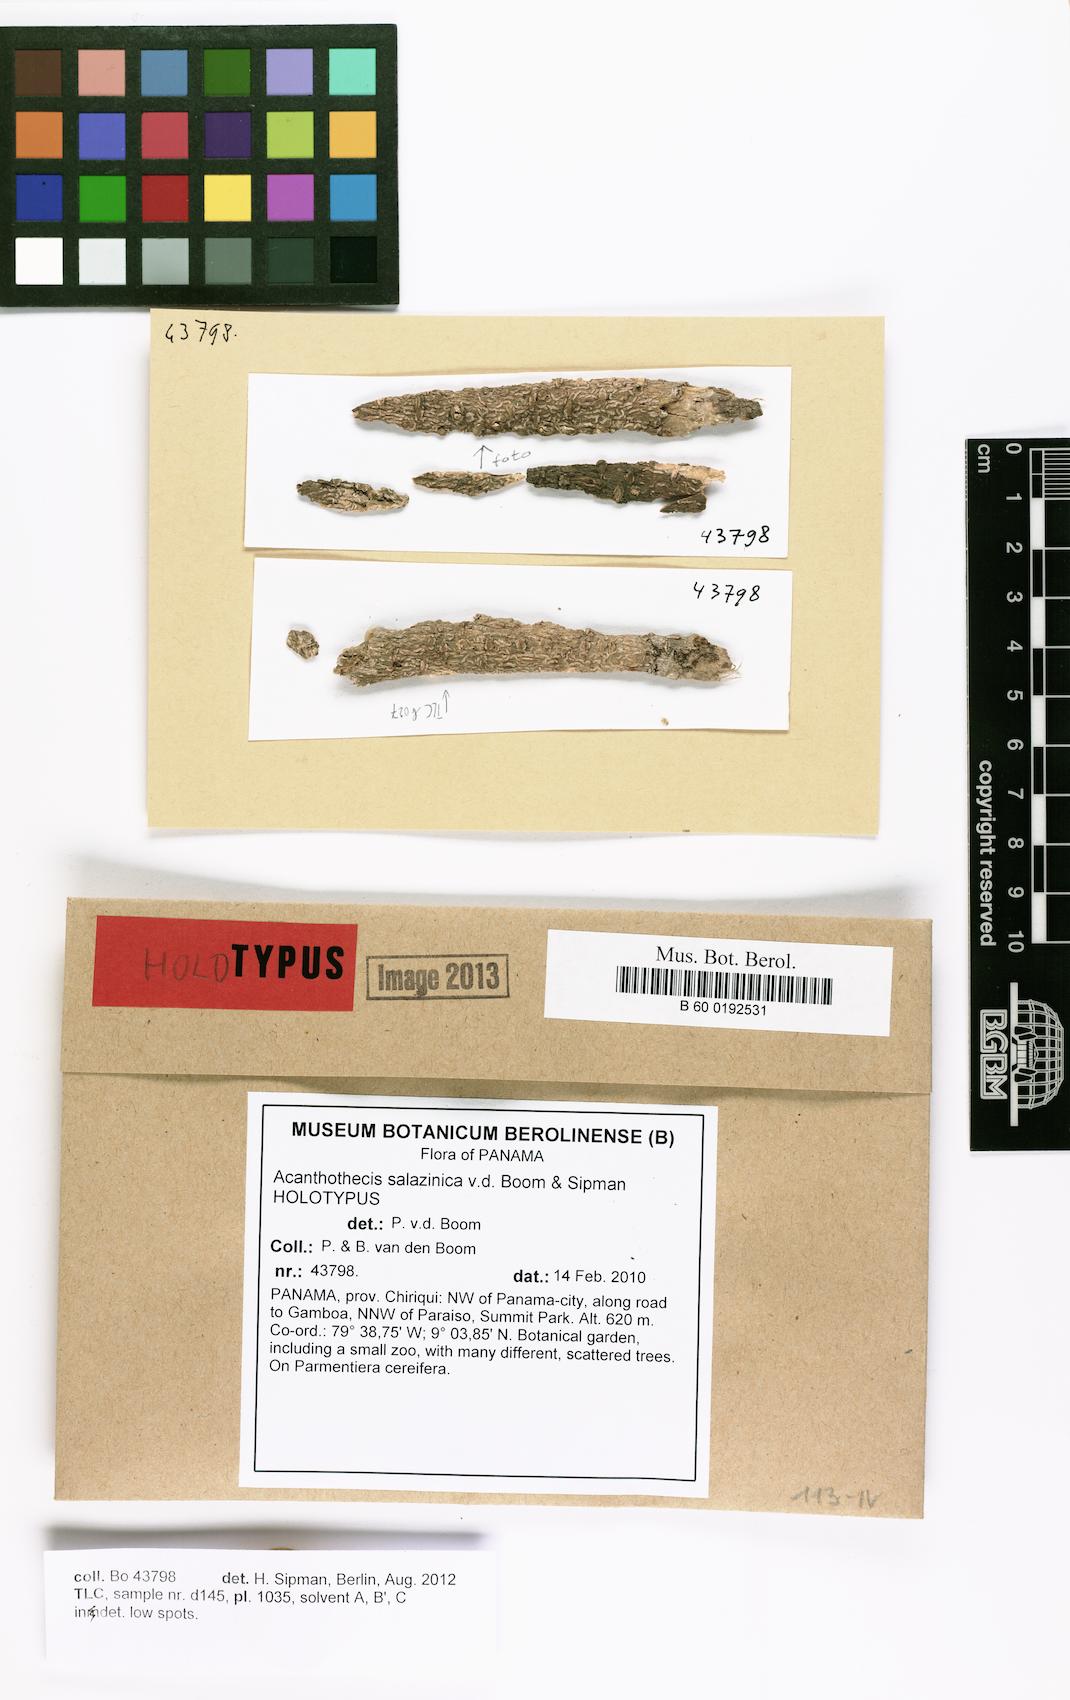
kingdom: Fungi
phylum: Ascomycota
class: Lecanoromycetes
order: Ostropales
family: Graphidaceae
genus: Acanthothecis
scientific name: Acanthothecis salazinica
